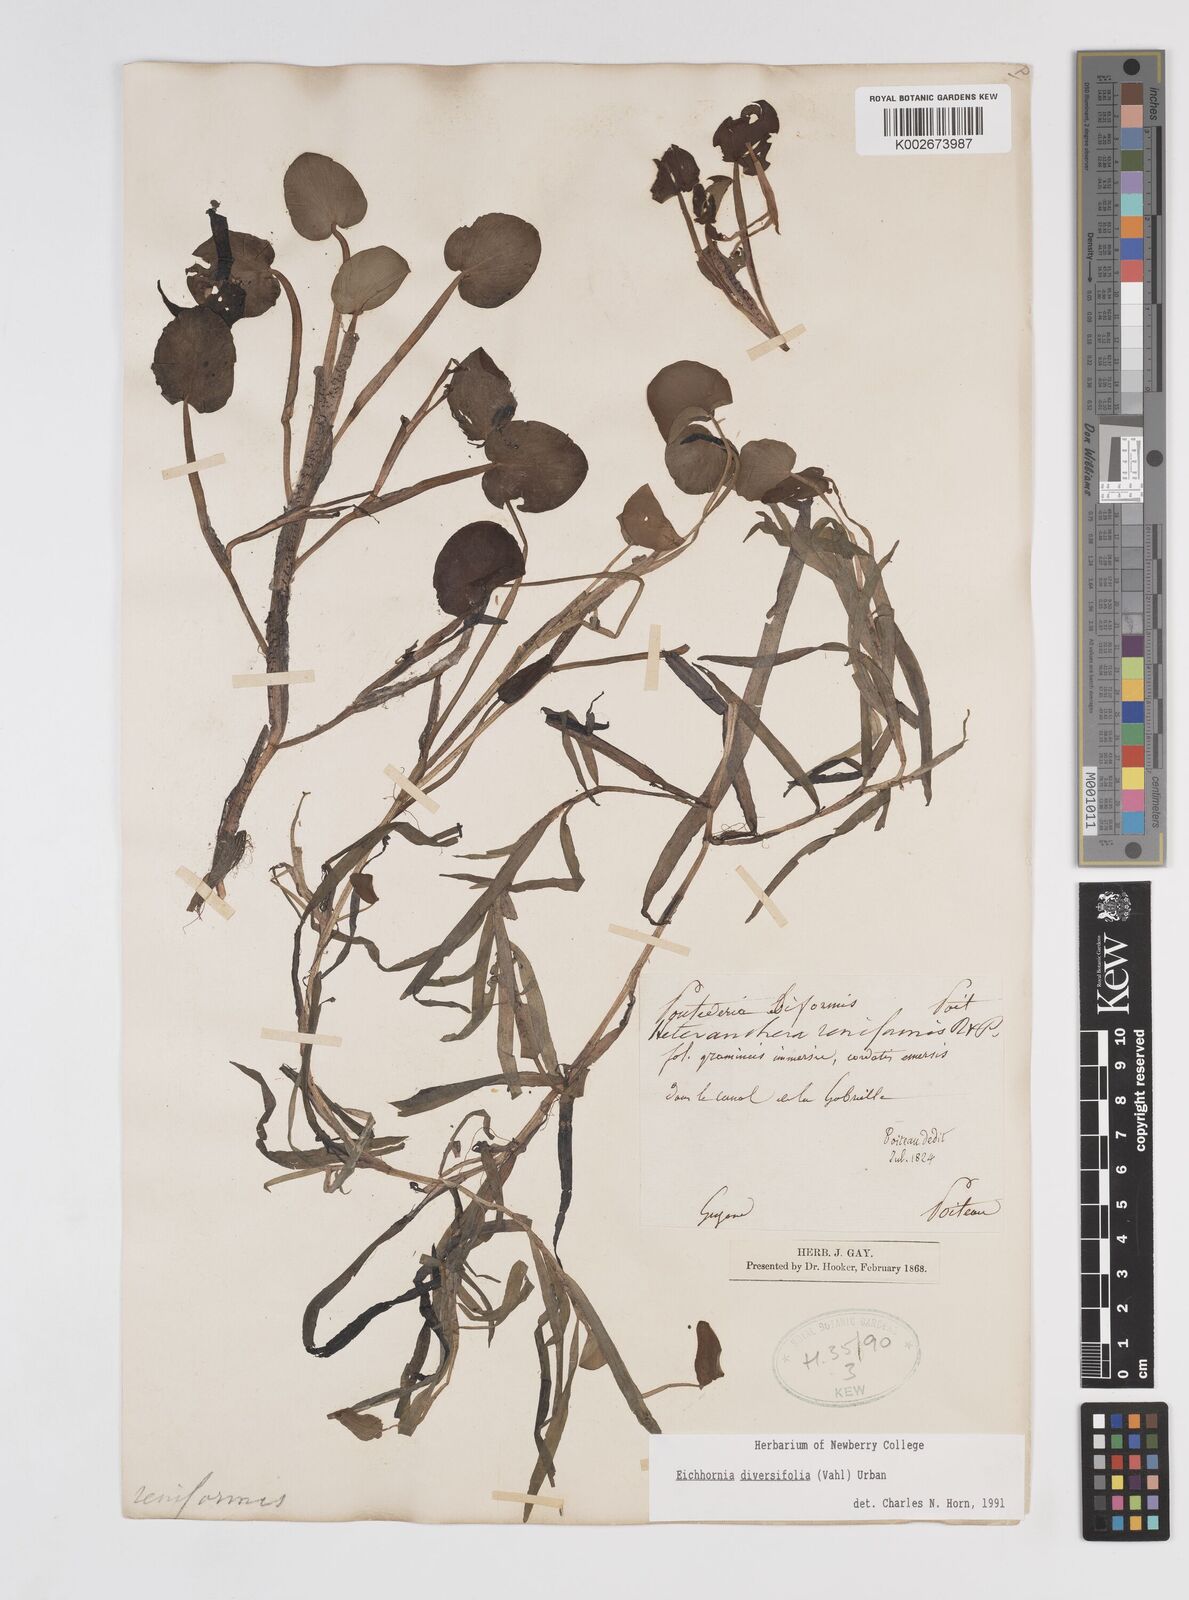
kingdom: Plantae
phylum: Tracheophyta
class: Liliopsida
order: Commelinales
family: Pontederiaceae
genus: Pontederia
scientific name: Pontederia diversifolia
